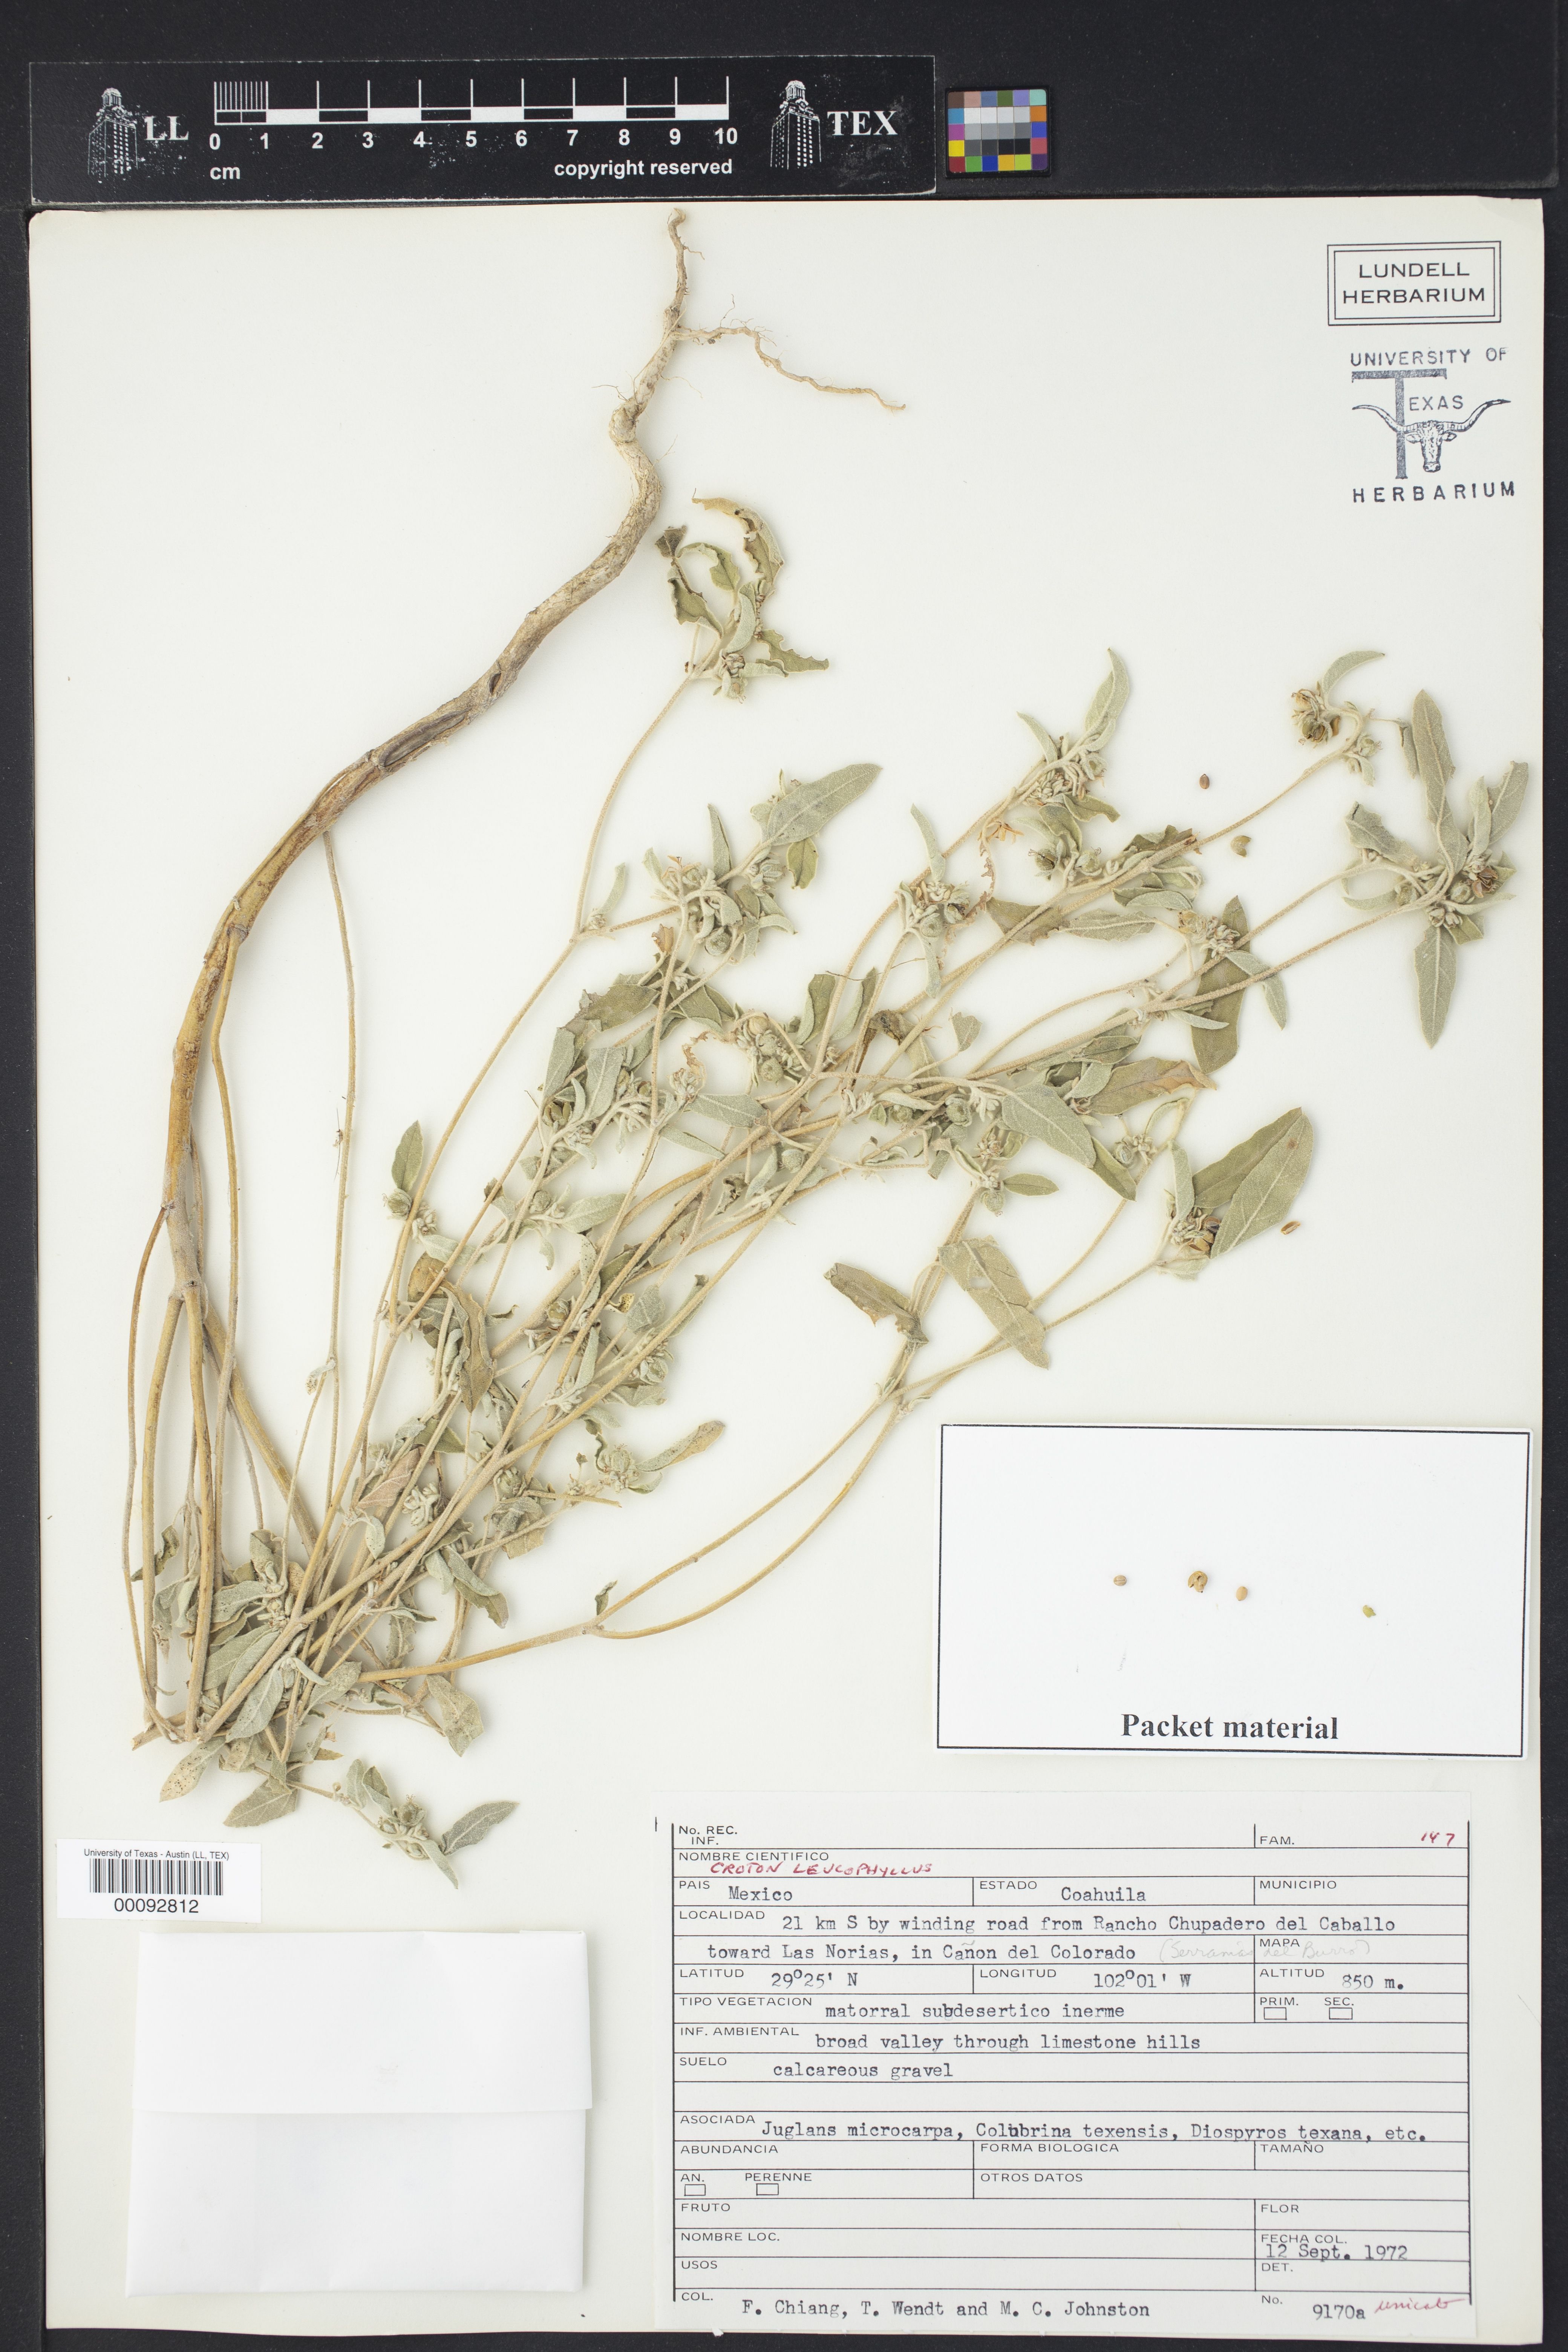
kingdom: Plantae
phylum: Tracheophyta
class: Magnoliopsida
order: Malpighiales
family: Euphorbiaceae
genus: Croton
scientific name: Croton leucophyllus
